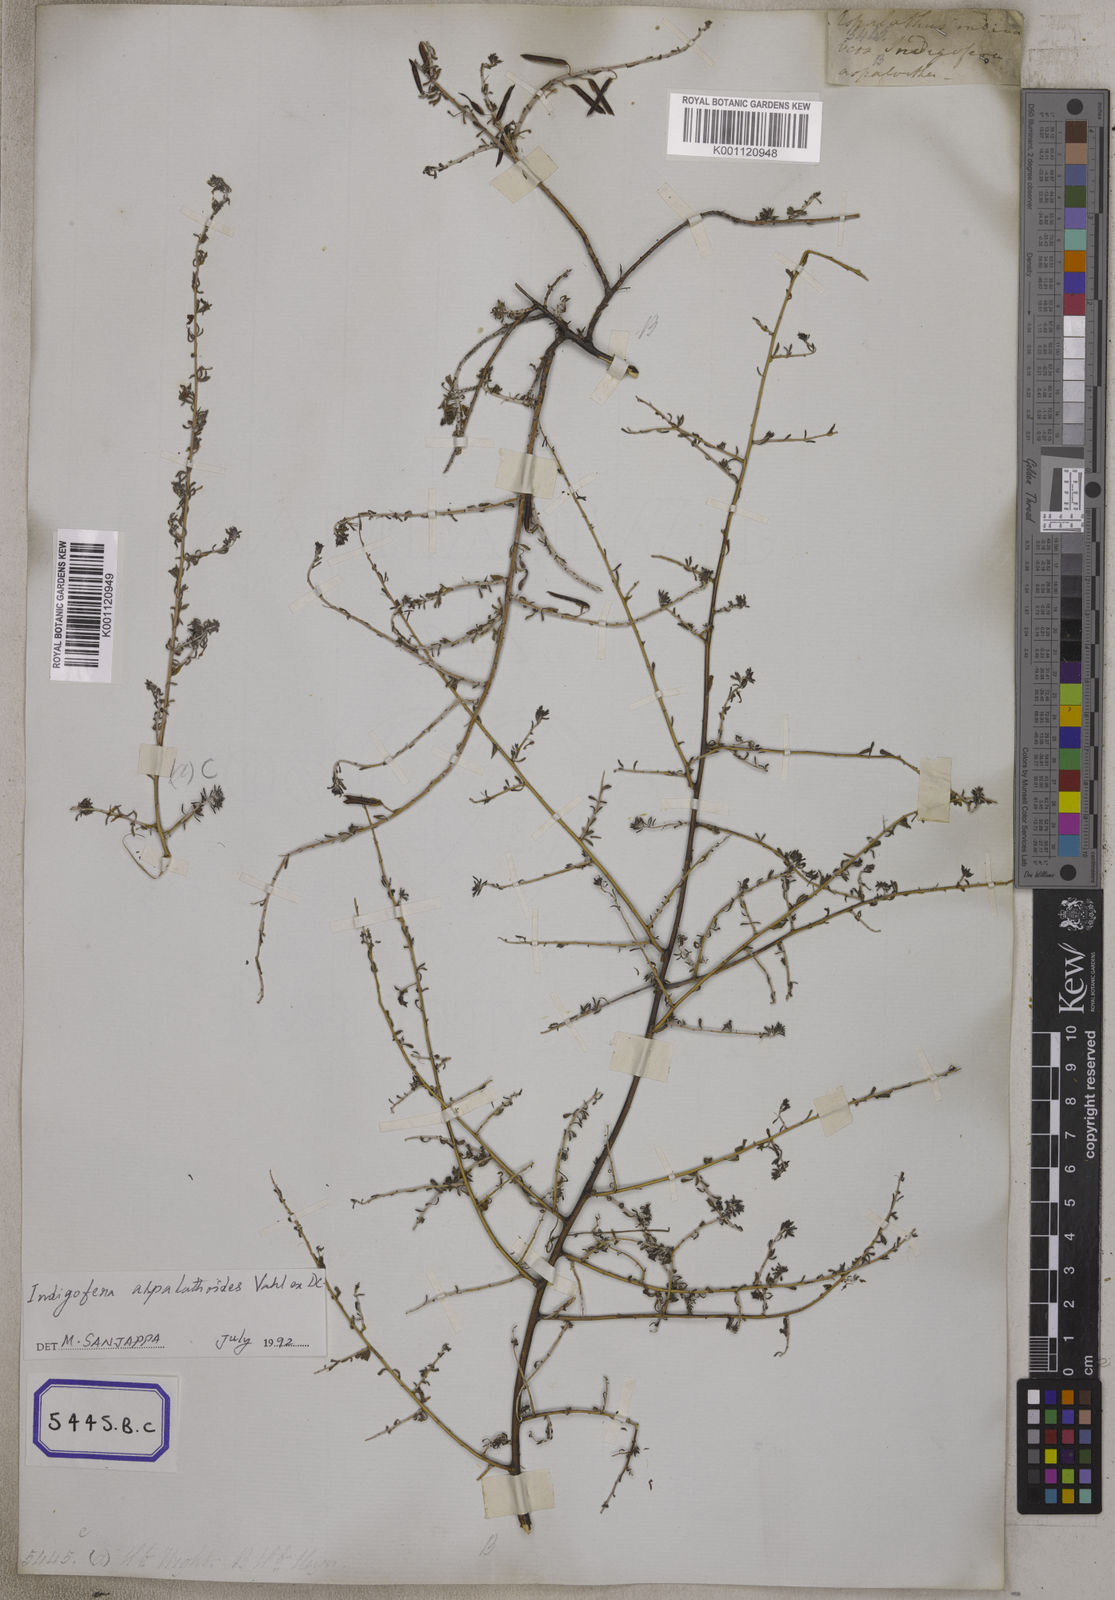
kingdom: Plantae
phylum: Tracheophyta
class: Magnoliopsida
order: Fabales
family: Fabaceae
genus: Indigofera
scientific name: Indigofera aspalathoides
